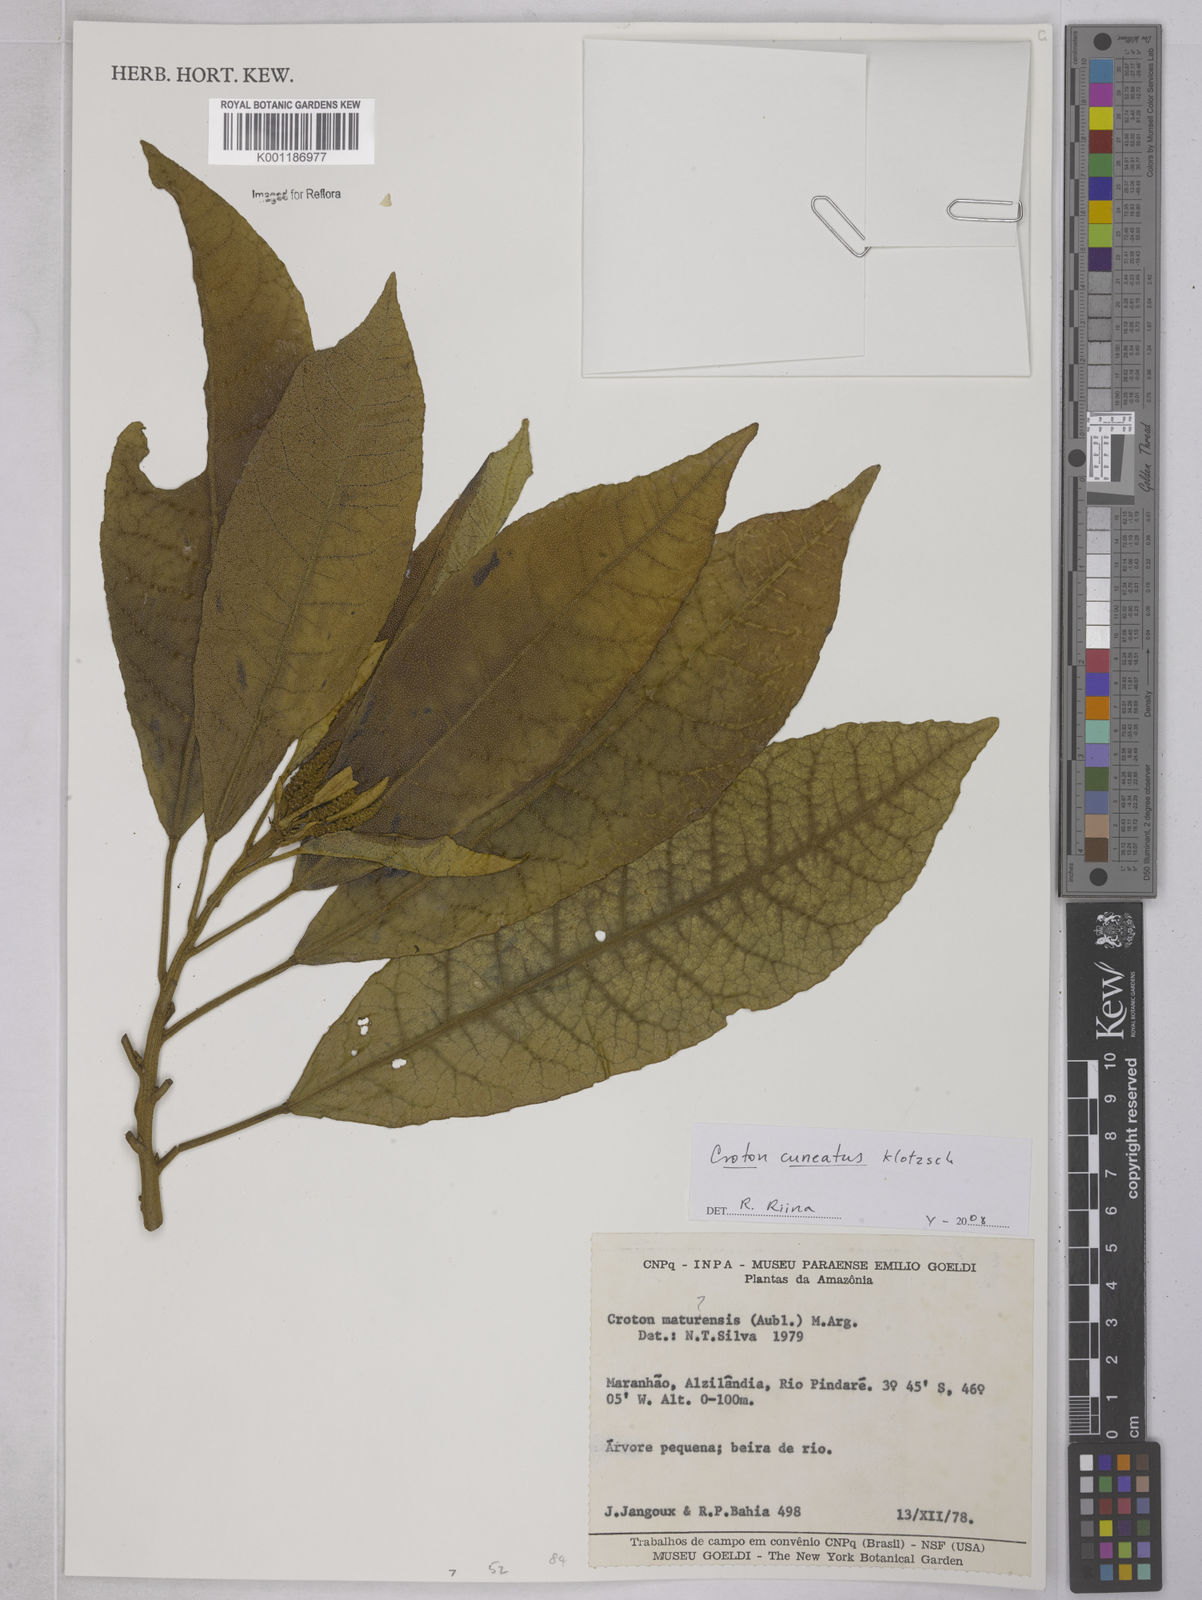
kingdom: Plantae
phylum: Tracheophyta
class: Magnoliopsida
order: Malpighiales
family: Euphorbiaceae
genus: Croton
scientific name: Croton
